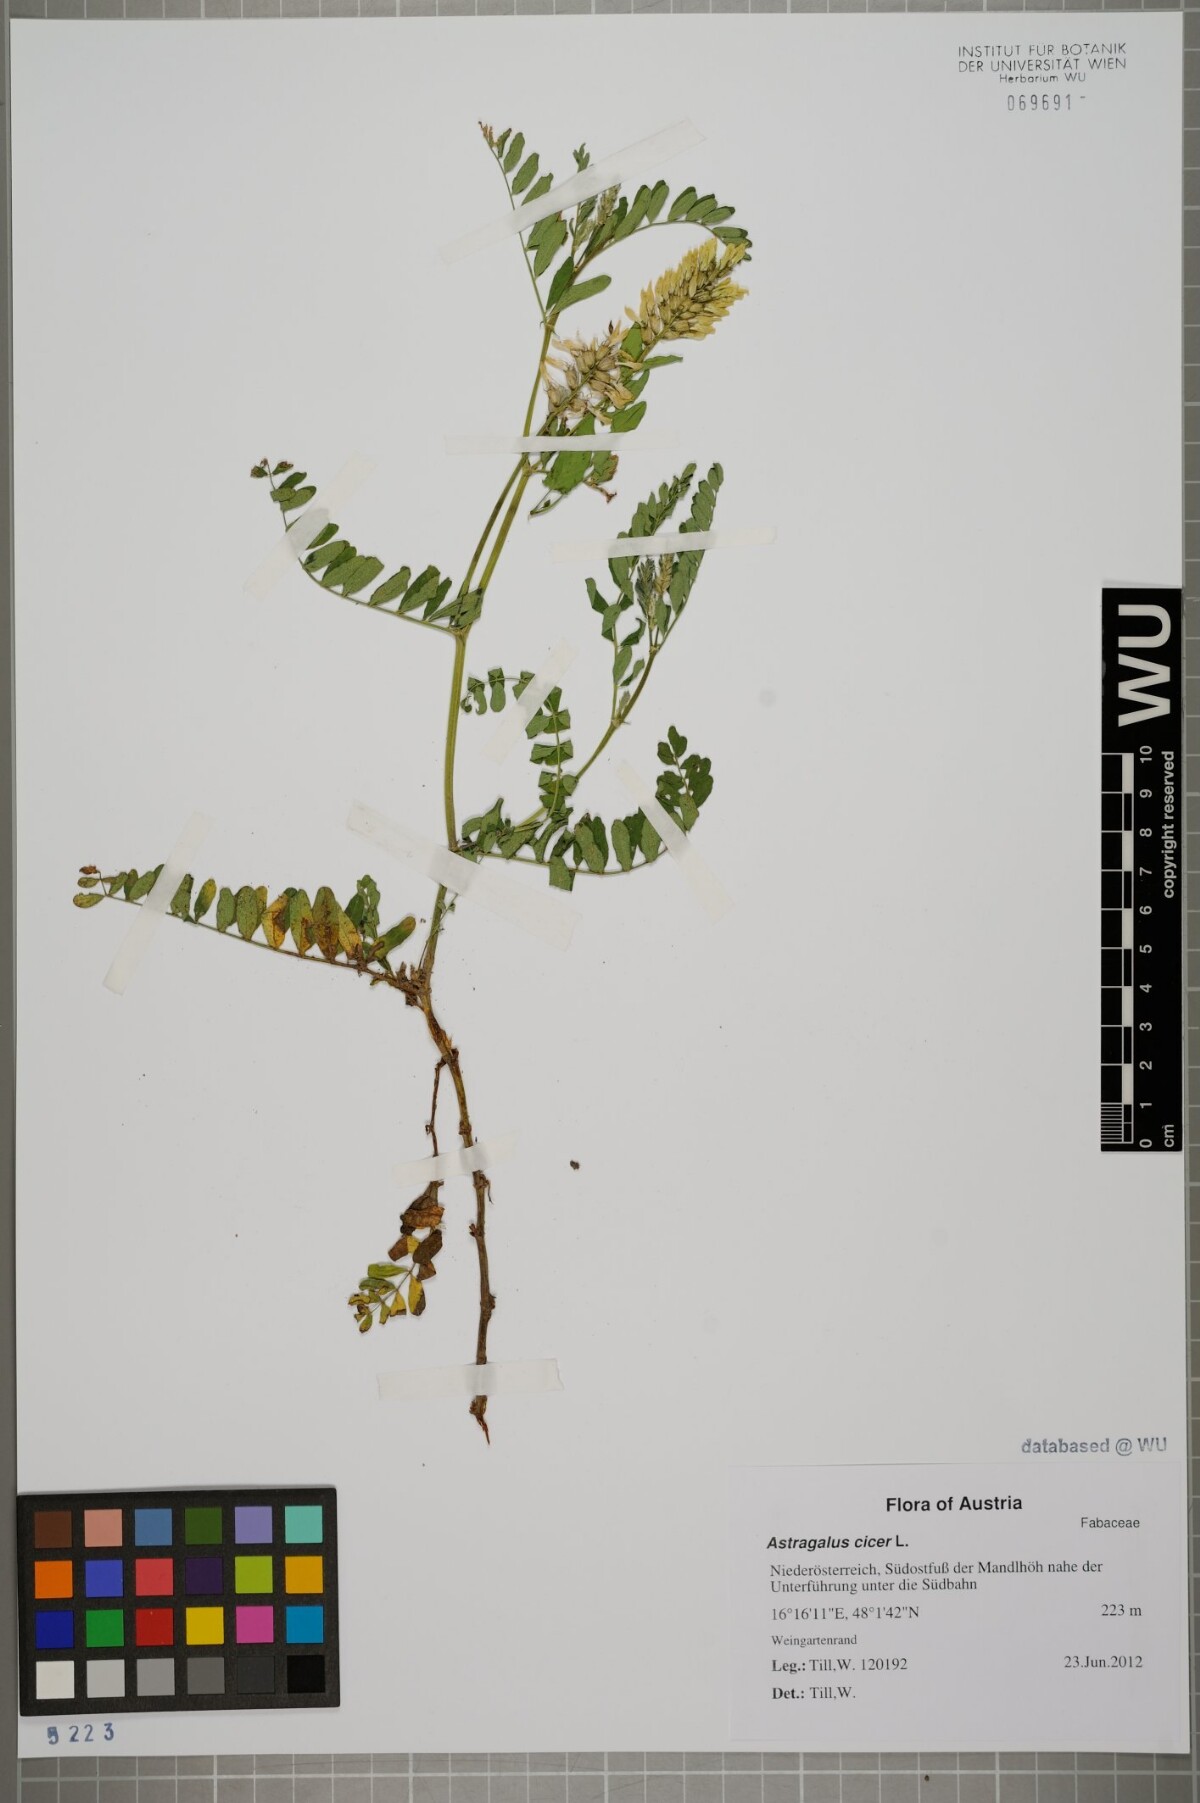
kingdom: Plantae
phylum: Tracheophyta
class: Magnoliopsida
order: Fabales
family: Fabaceae
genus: Astragalus
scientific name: Astragalus cicer
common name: Chick-pea milk-vetch
